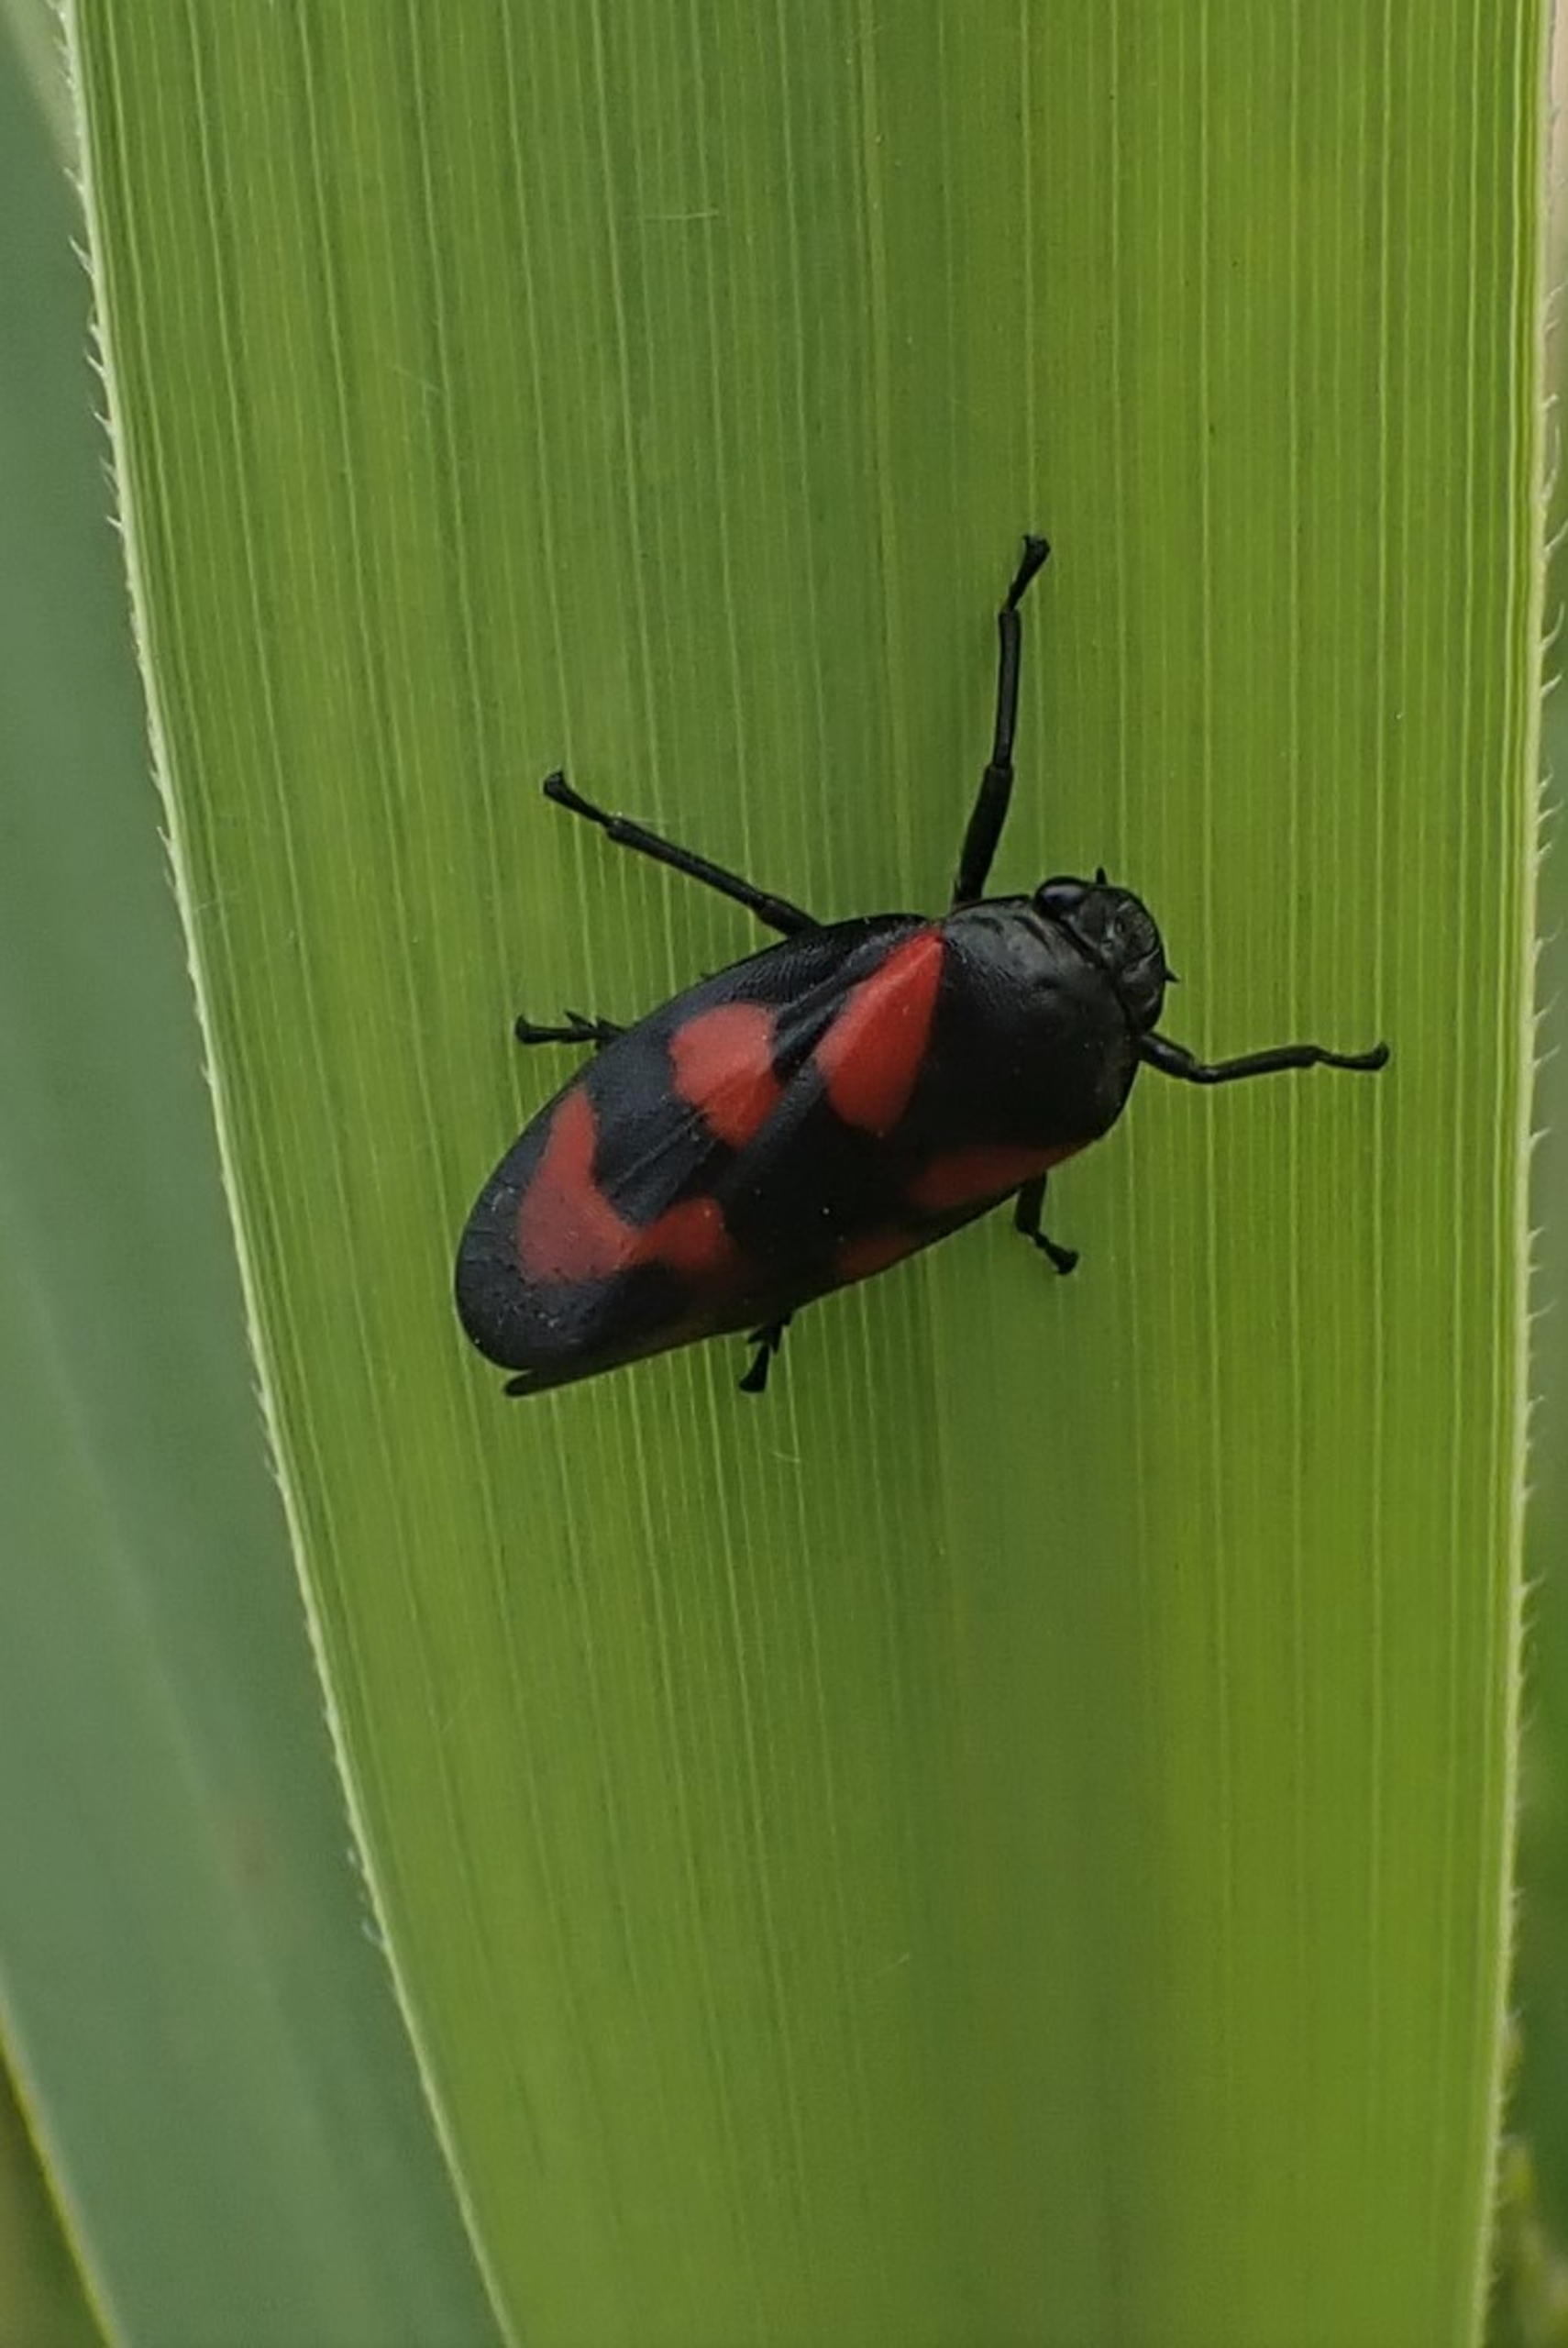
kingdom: Animalia
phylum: Arthropoda
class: Insecta
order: Hemiptera
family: Cercopidae
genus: Cercopis
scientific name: Cercopis vulnerata
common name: Blodcikade
